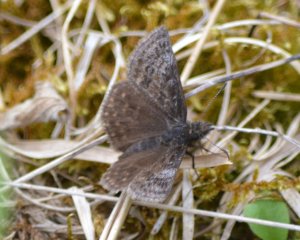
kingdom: Animalia
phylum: Arthropoda
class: Insecta
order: Lepidoptera
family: Hesperiidae
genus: Erynnis
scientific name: Erynnis icelus
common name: Dreamy Duskywing
